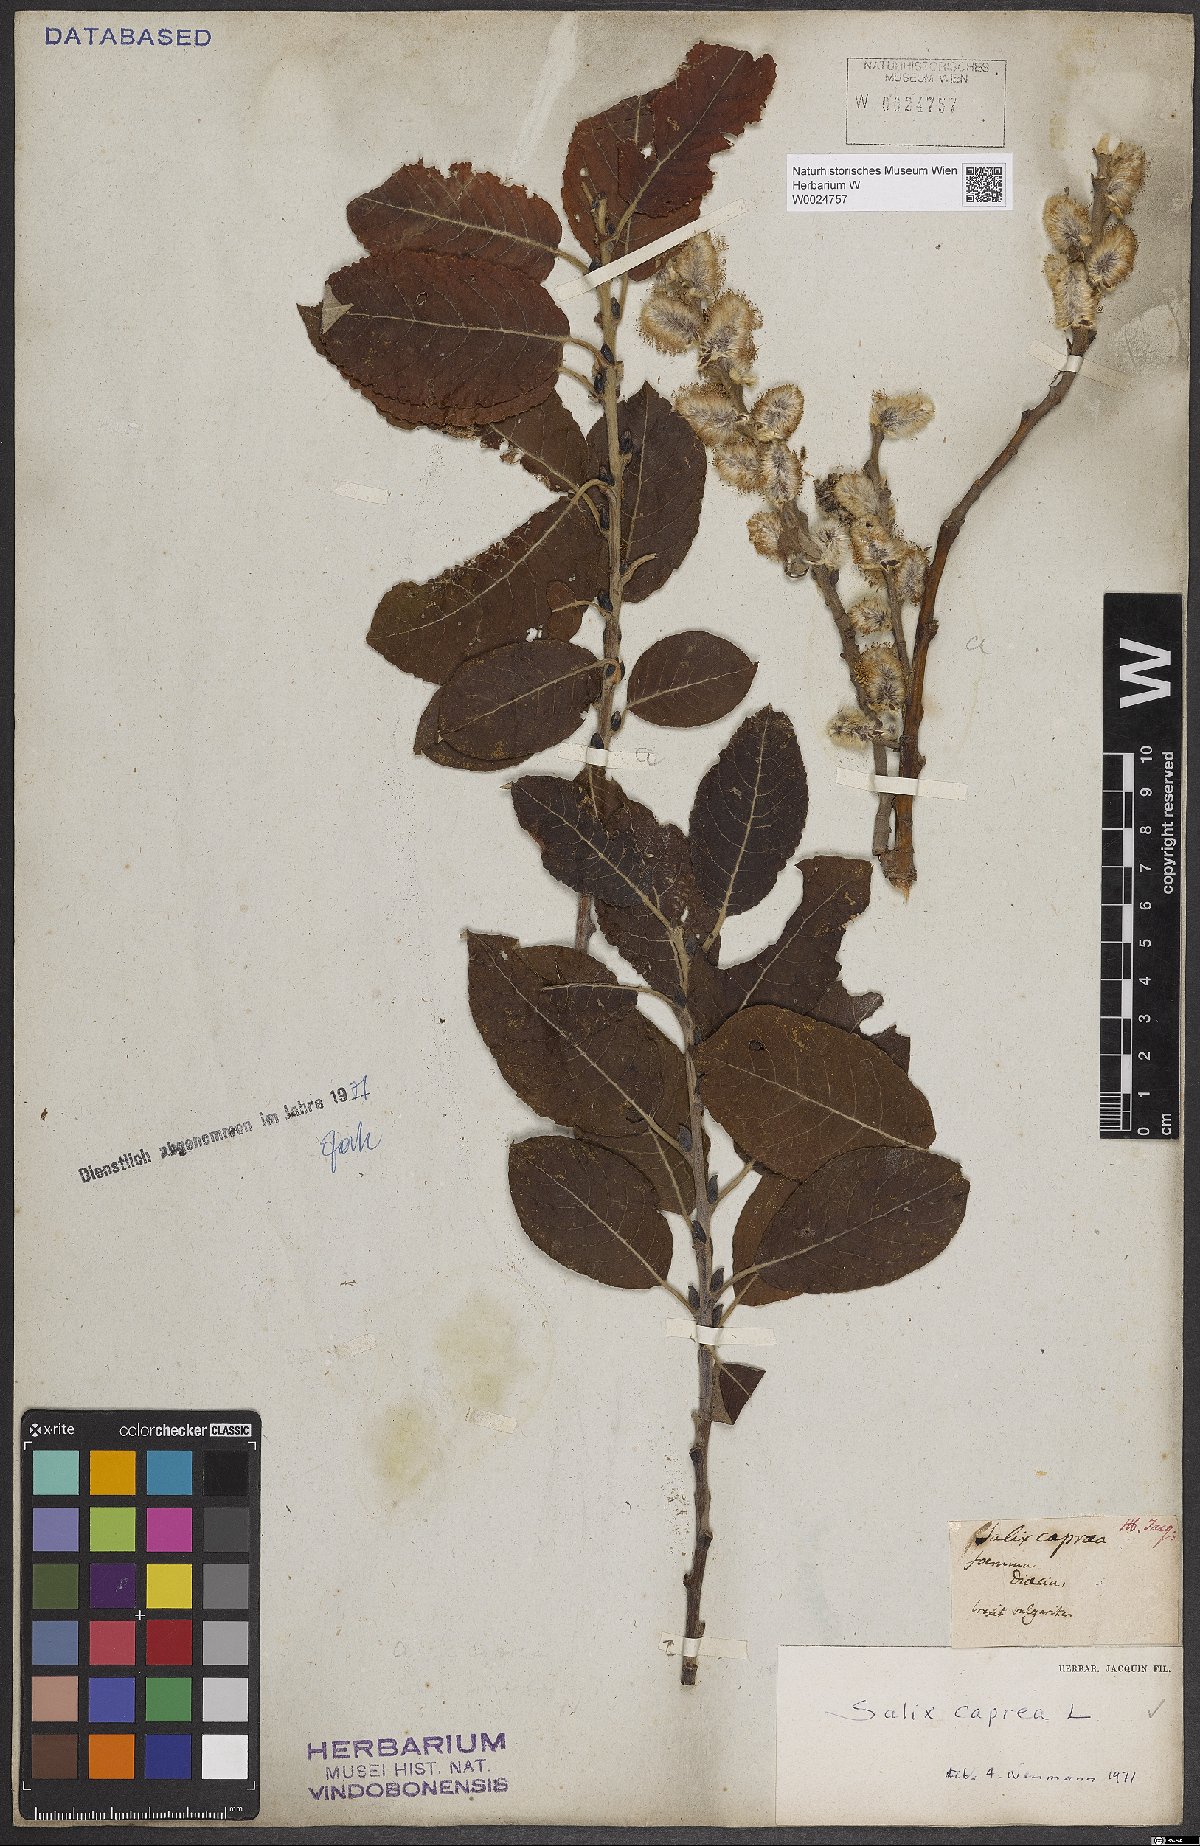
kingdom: Plantae
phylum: Tracheophyta
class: Magnoliopsida
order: Malpighiales
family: Salicaceae
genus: Salix
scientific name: Salix caprea
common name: Goat willow
